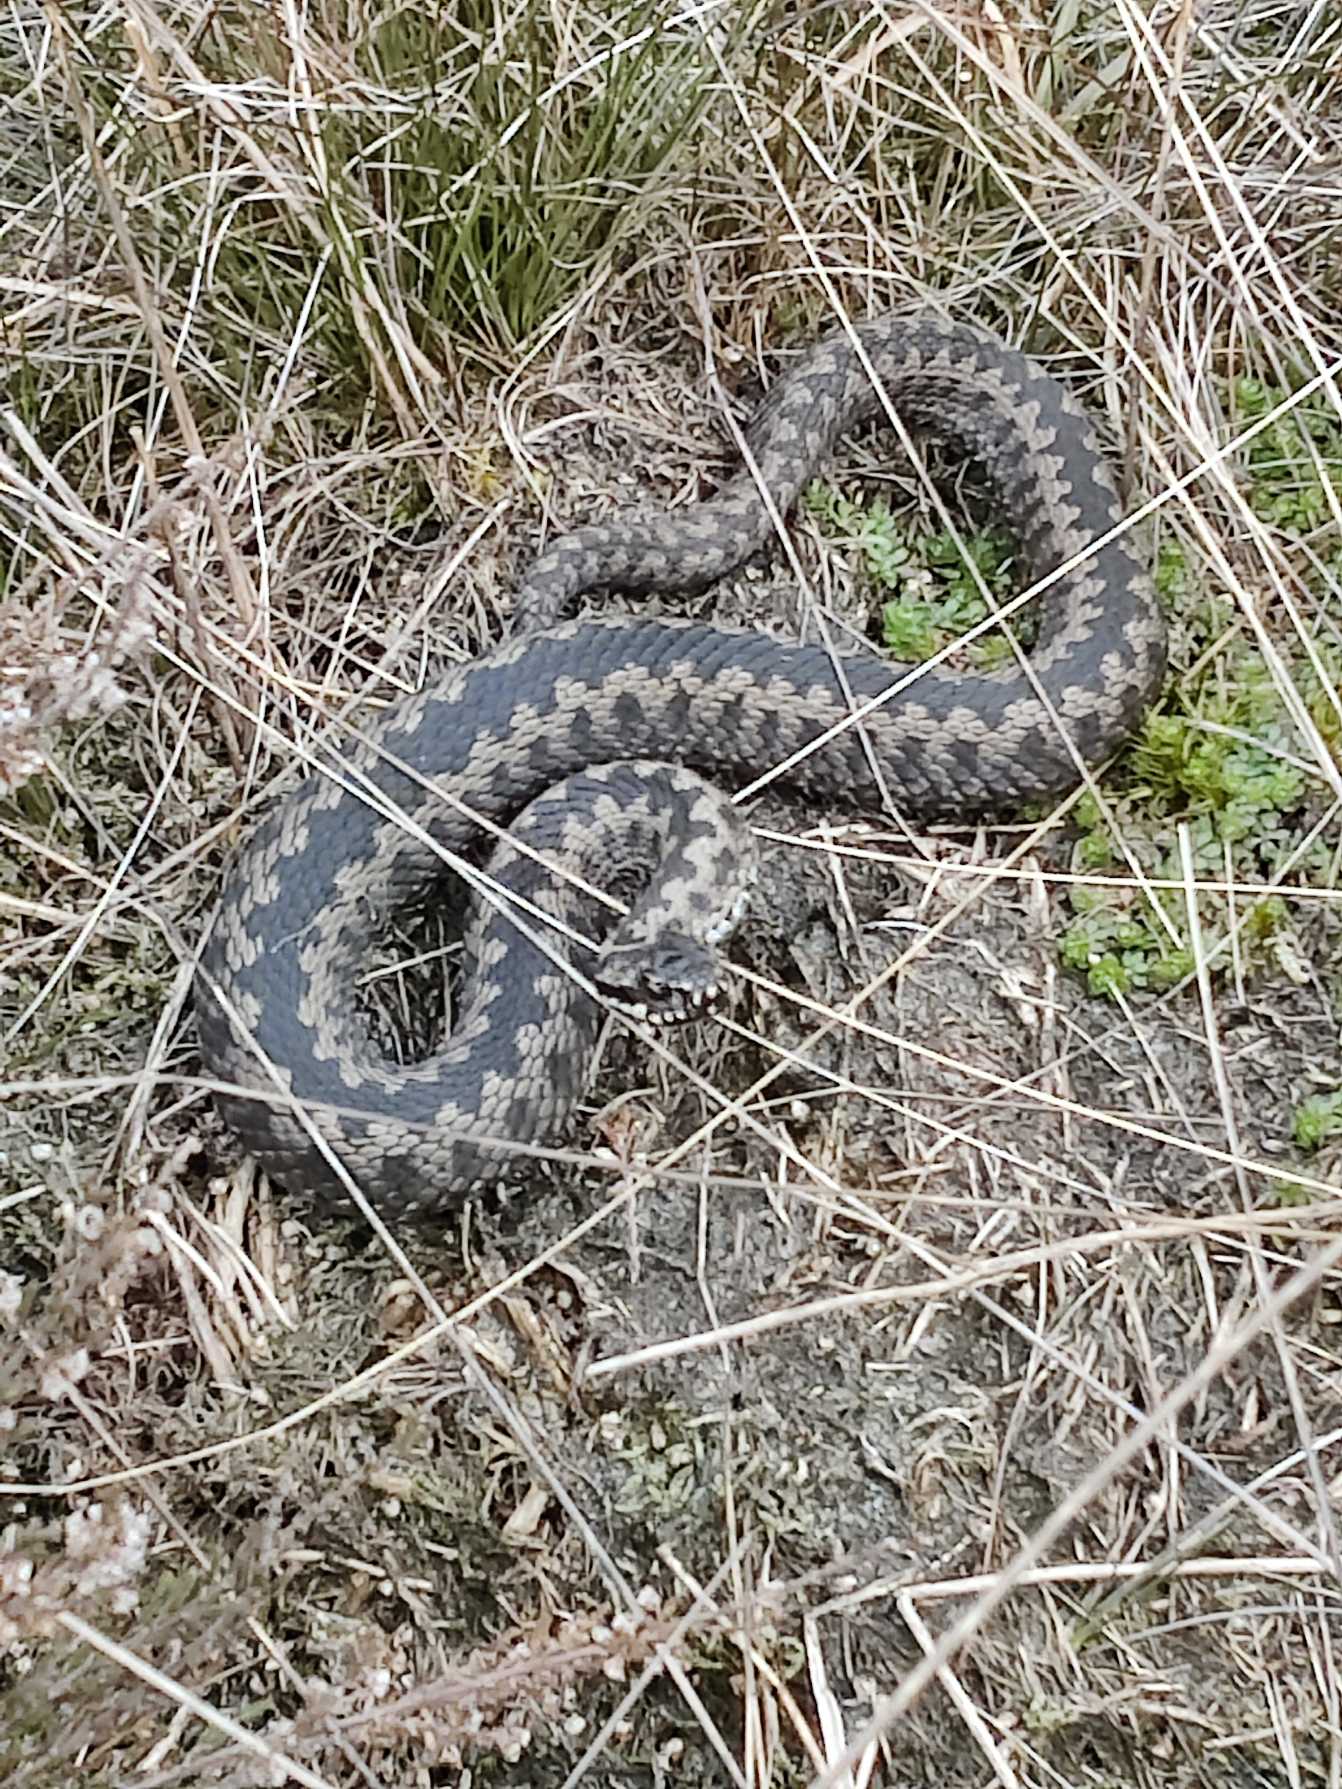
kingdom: Animalia
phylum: Chordata
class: Squamata
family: Viperidae
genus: Vipera
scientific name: Vipera berus
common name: Hugorm
